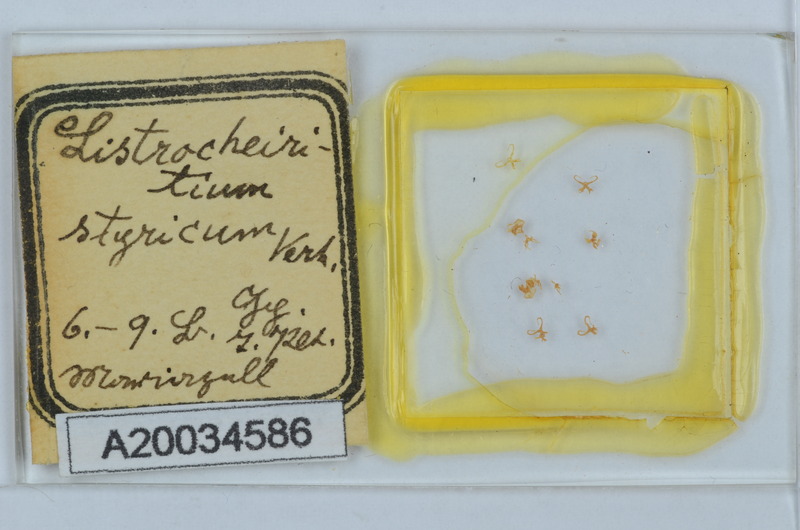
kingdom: Animalia
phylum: Arthropoda
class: Diplopoda
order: Chordeumatida
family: Craspedosomatidae
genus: Listrocheiritium
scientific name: Listrocheiritium styricum
